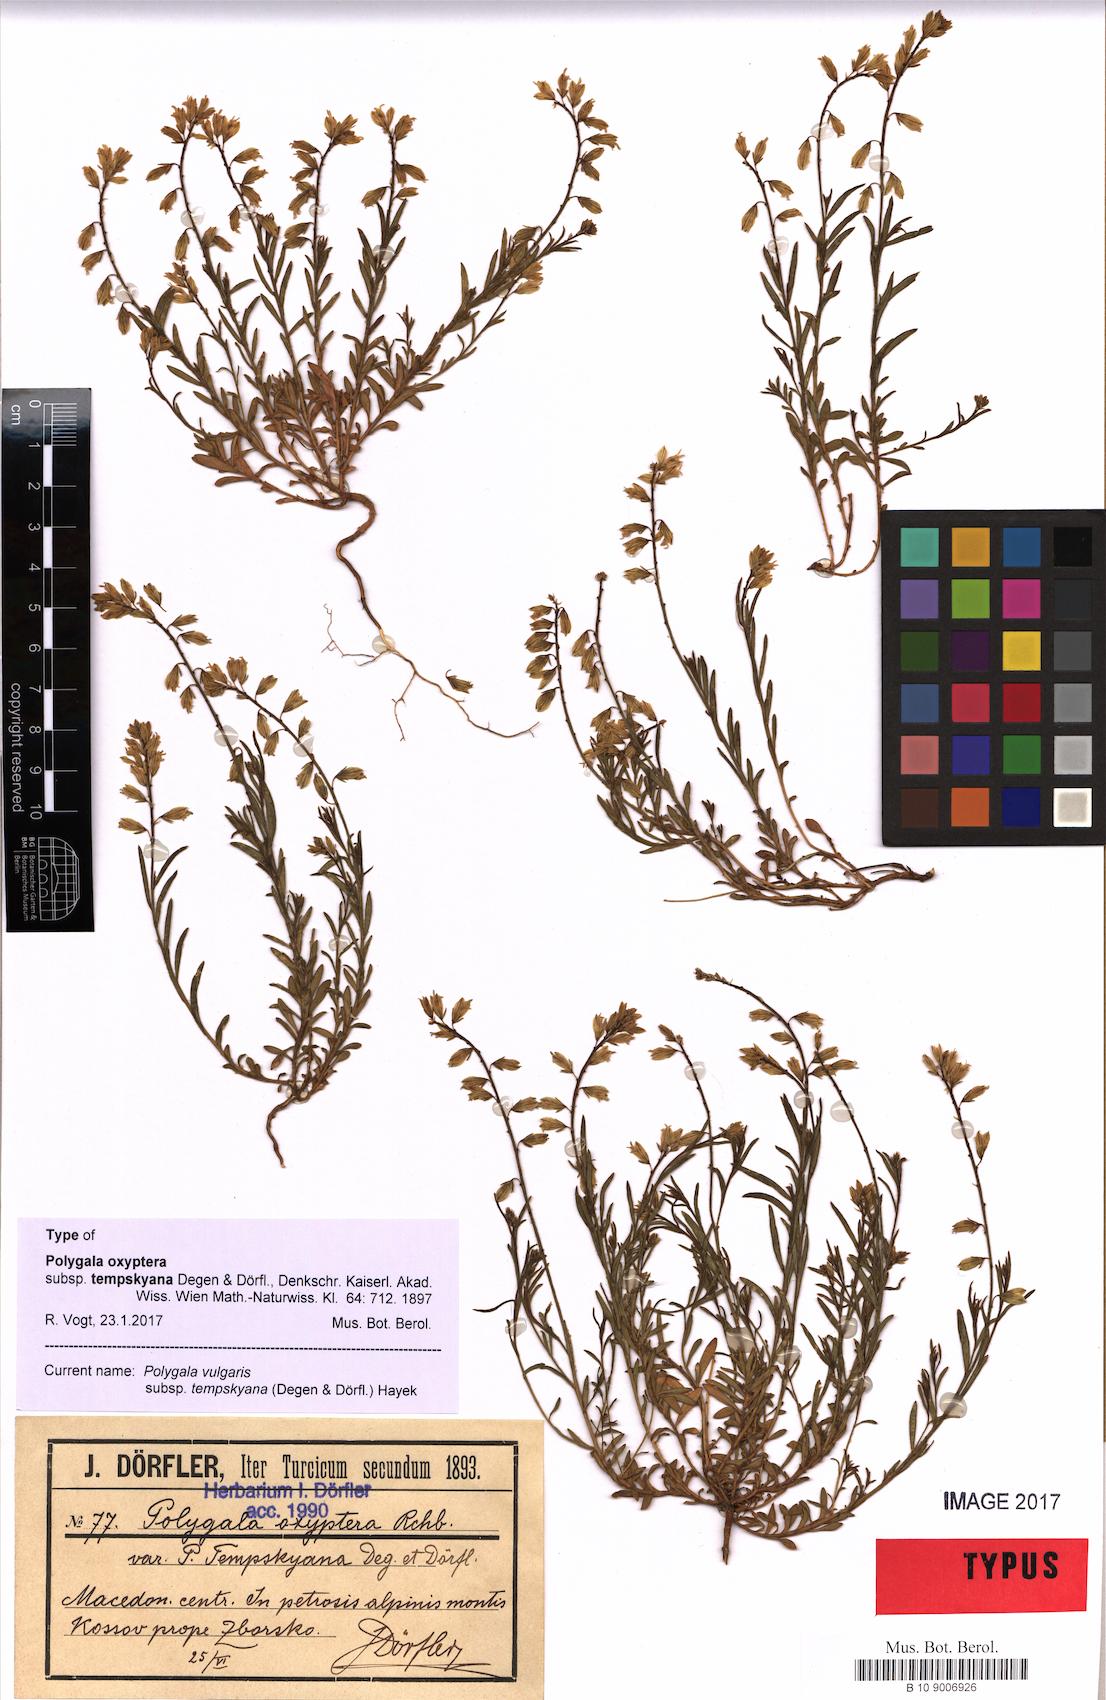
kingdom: Plantae
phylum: Tracheophyta
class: Magnoliopsida
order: Fabales
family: Polygalaceae
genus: Polygala
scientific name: Polygala vulgaris
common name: Common milkwort
